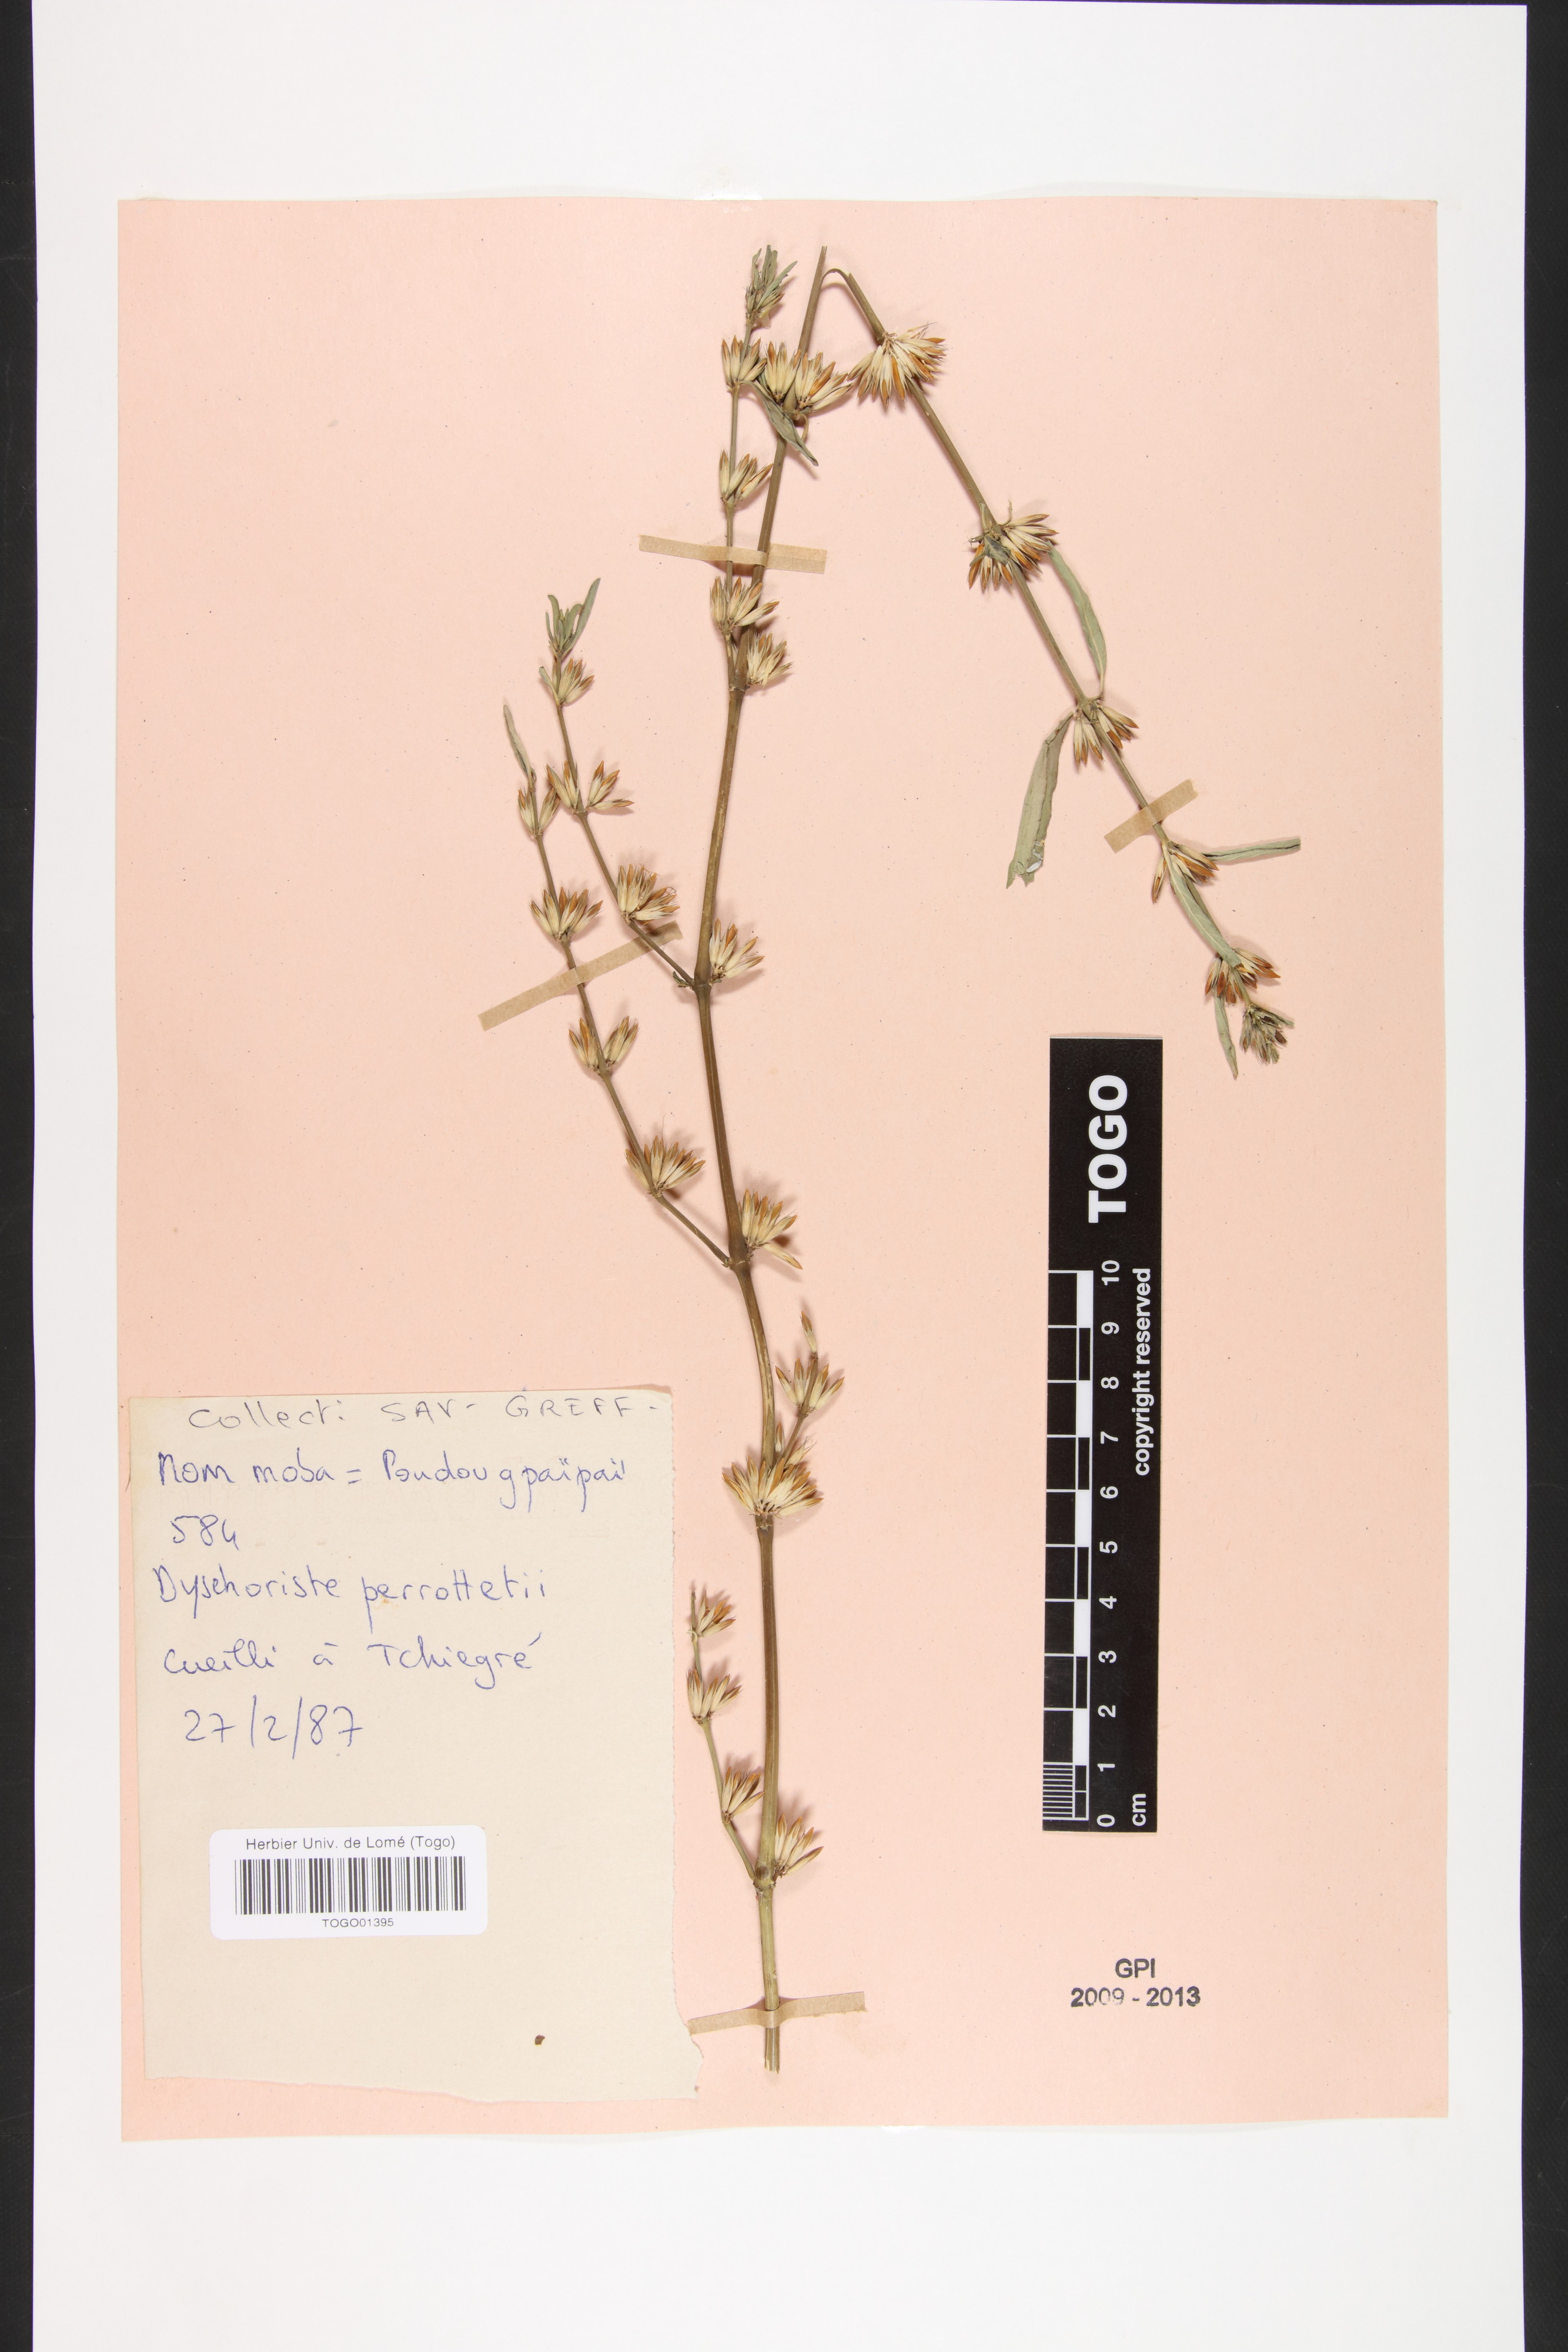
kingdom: Plantae
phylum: Tracheophyta
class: Magnoliopsida
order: Lamiales
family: Acanthaceae
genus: Dyschoriste
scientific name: Dyschoriste nagchana
